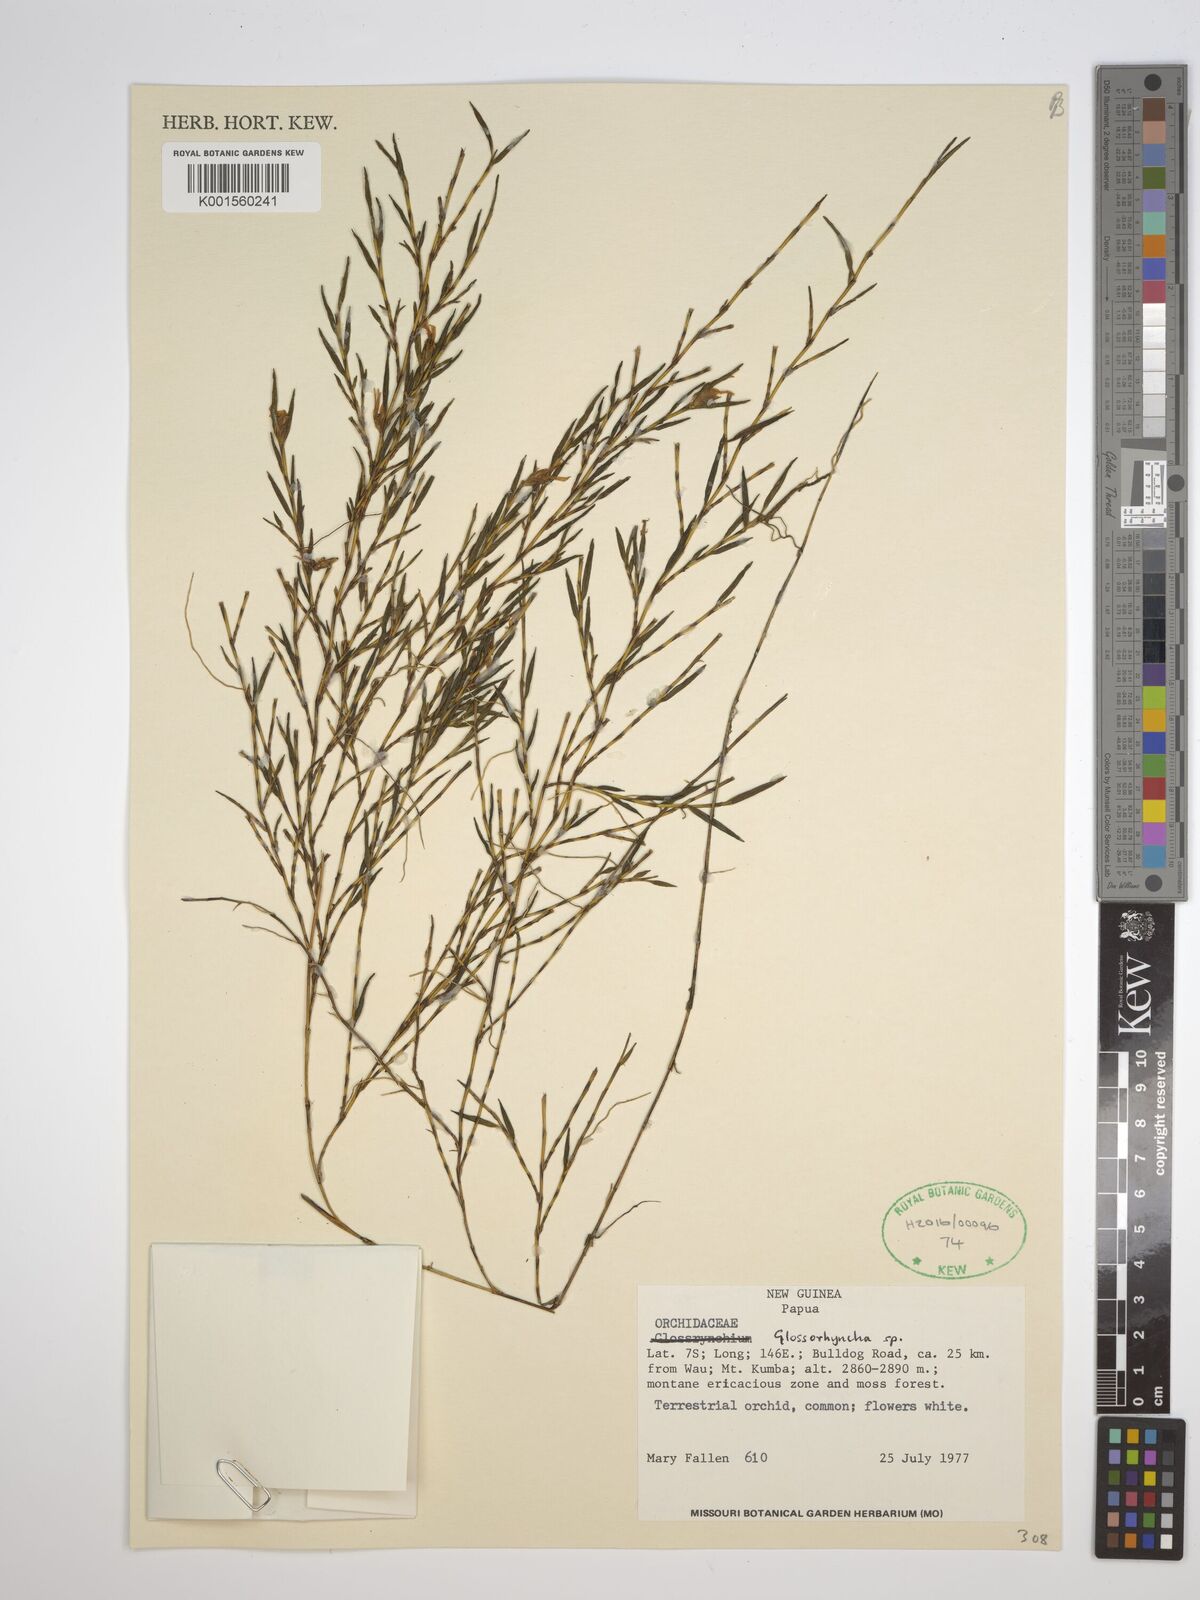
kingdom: Plantae
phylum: Tracheophyta
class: Liliopsida
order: Asparagales
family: Orchidaceae
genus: Glomera
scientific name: Glomera
